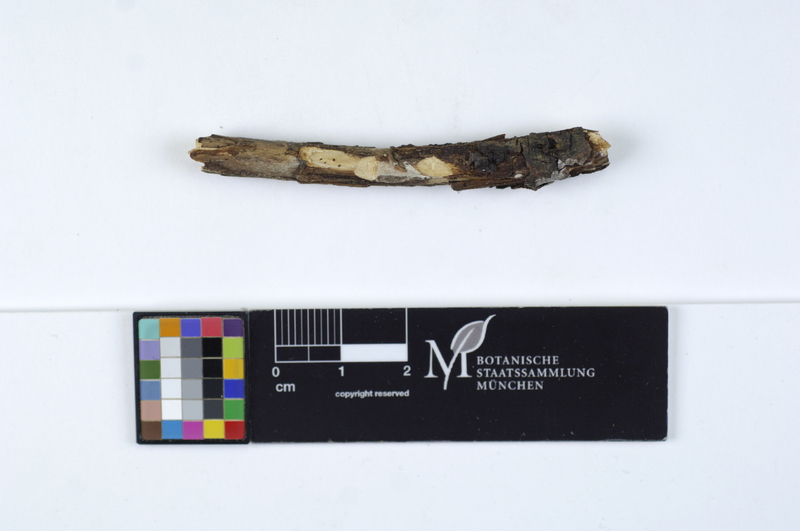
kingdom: Plantae
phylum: Tracheophyta
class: Magnoliopsida
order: Malpighiales
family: Salicaceae
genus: Salix
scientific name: Salix repens
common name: Creeping willow
